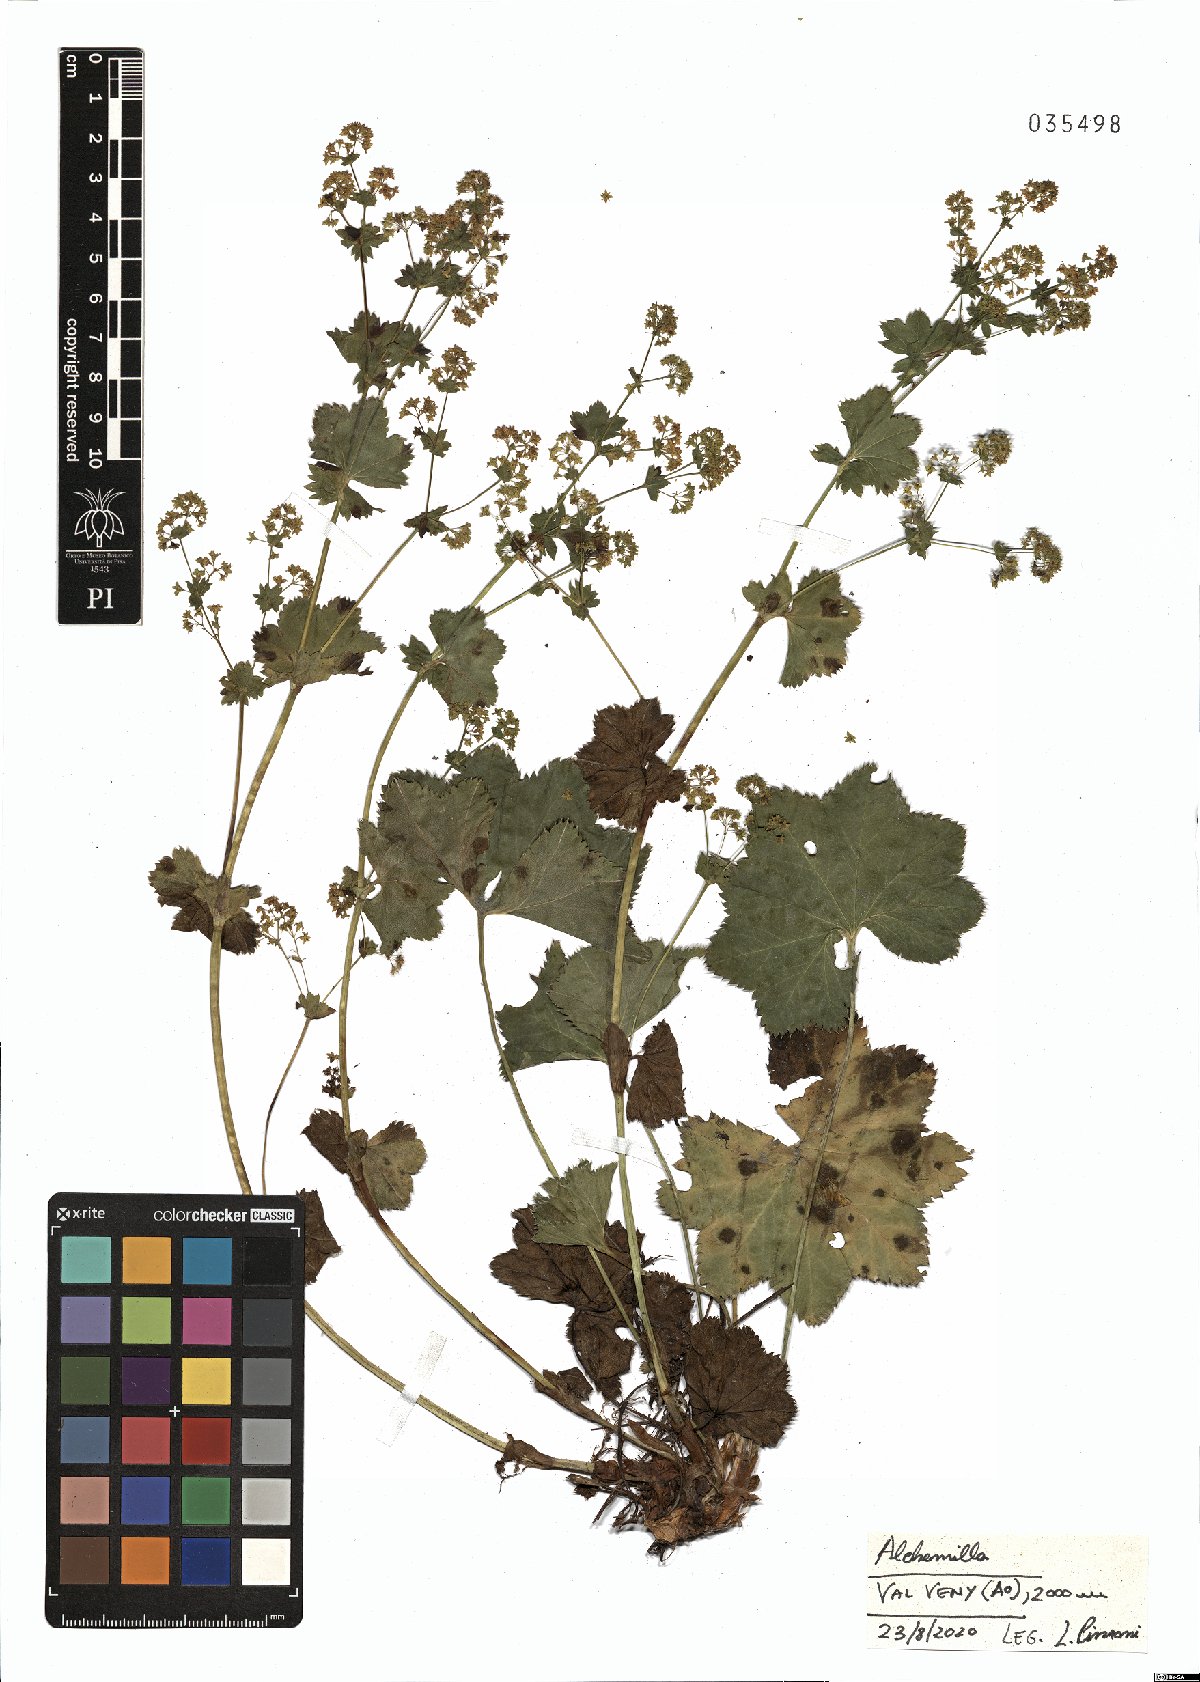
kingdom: Plantae
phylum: Tracheophyta
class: Magnoliopsida
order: Rosales
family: Rosaceae
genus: Alchemilla
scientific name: Alchemilla
